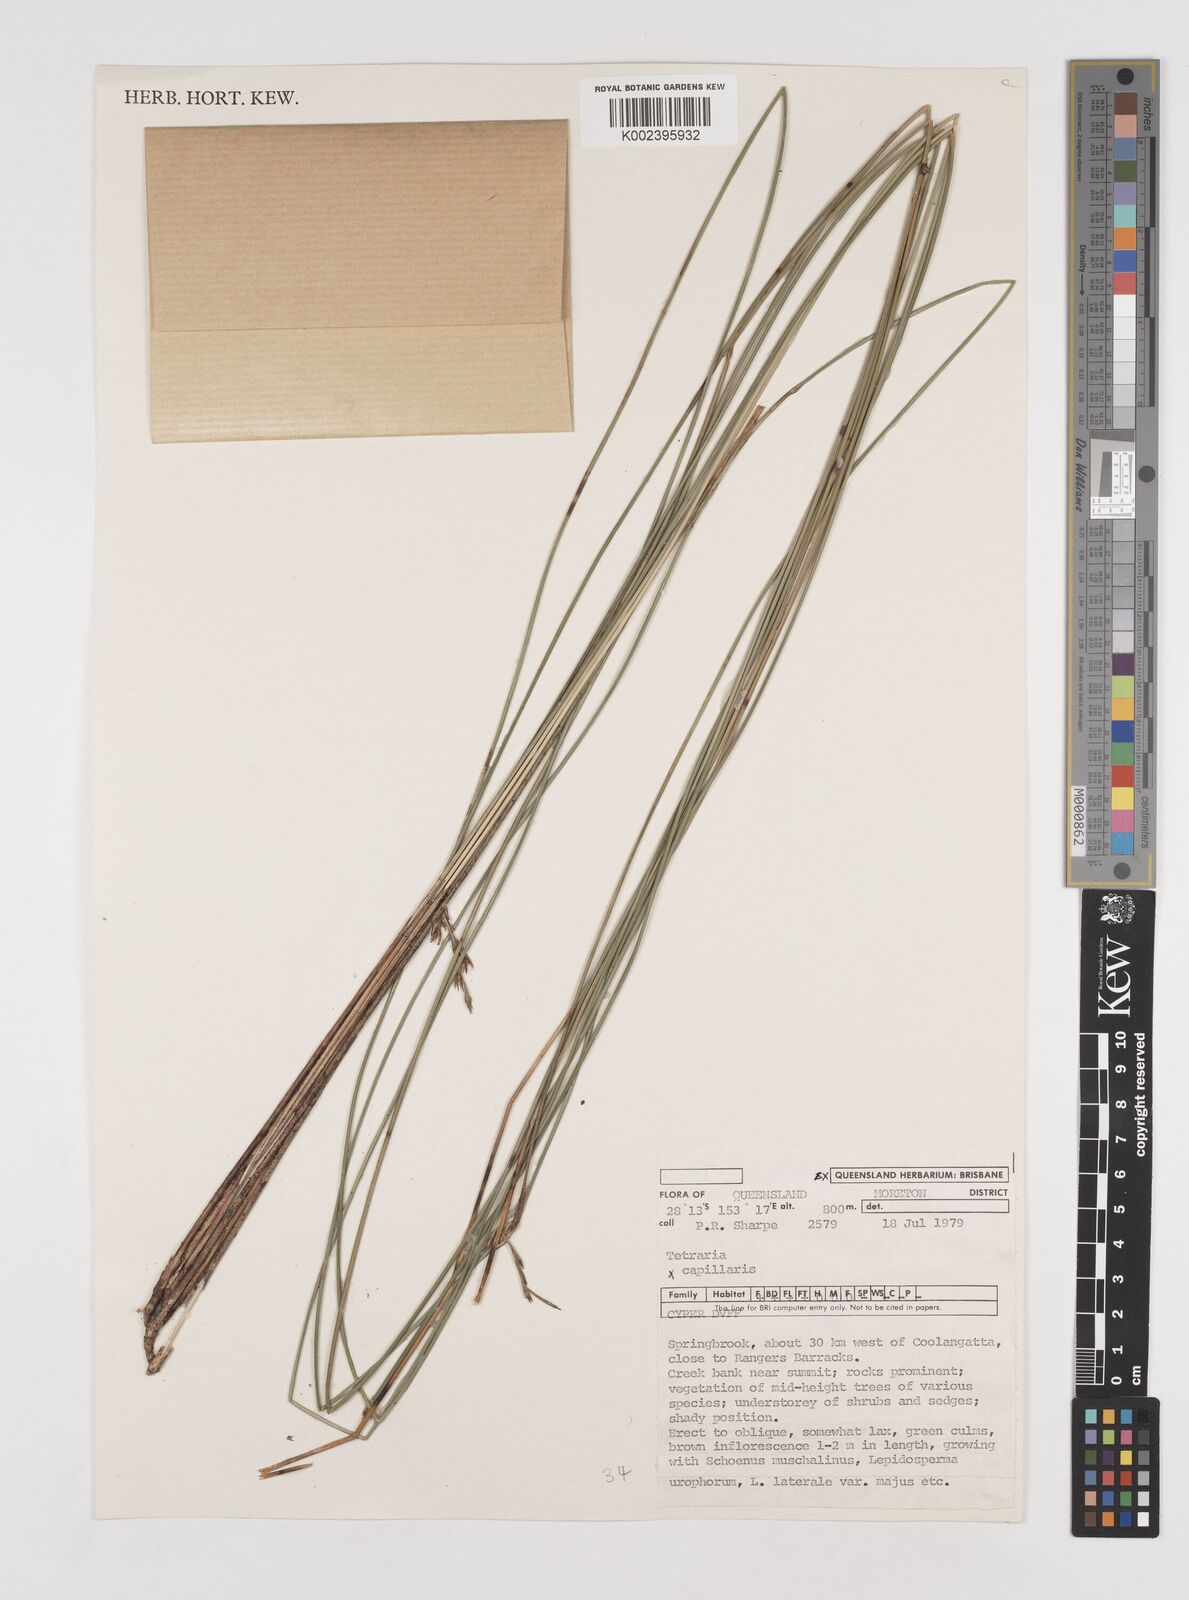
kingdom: Plantae
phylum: Tracheophyta
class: Liliopsida
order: Poales
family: Cyperaceae
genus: Tetraria
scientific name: Tetraria capillaris
